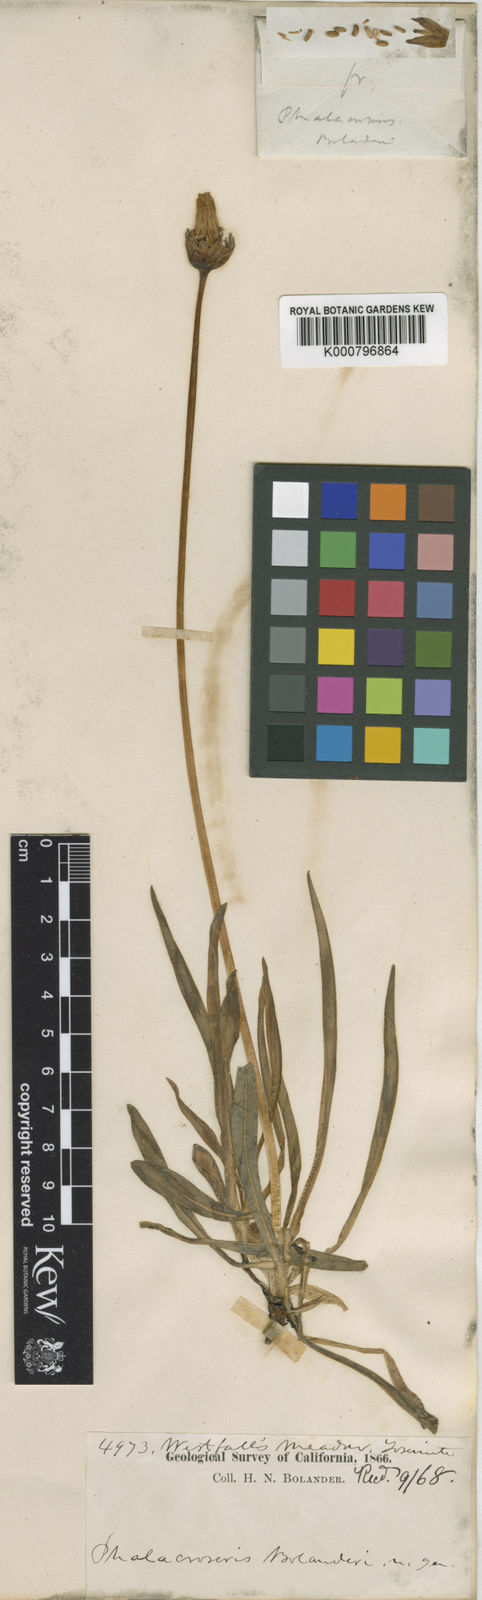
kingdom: Plantae
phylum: Tracheophyta
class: Magnoliopsida
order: Asterales
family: Asteraceae
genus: Phalacroseris
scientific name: Phalacroseris bolanderi
